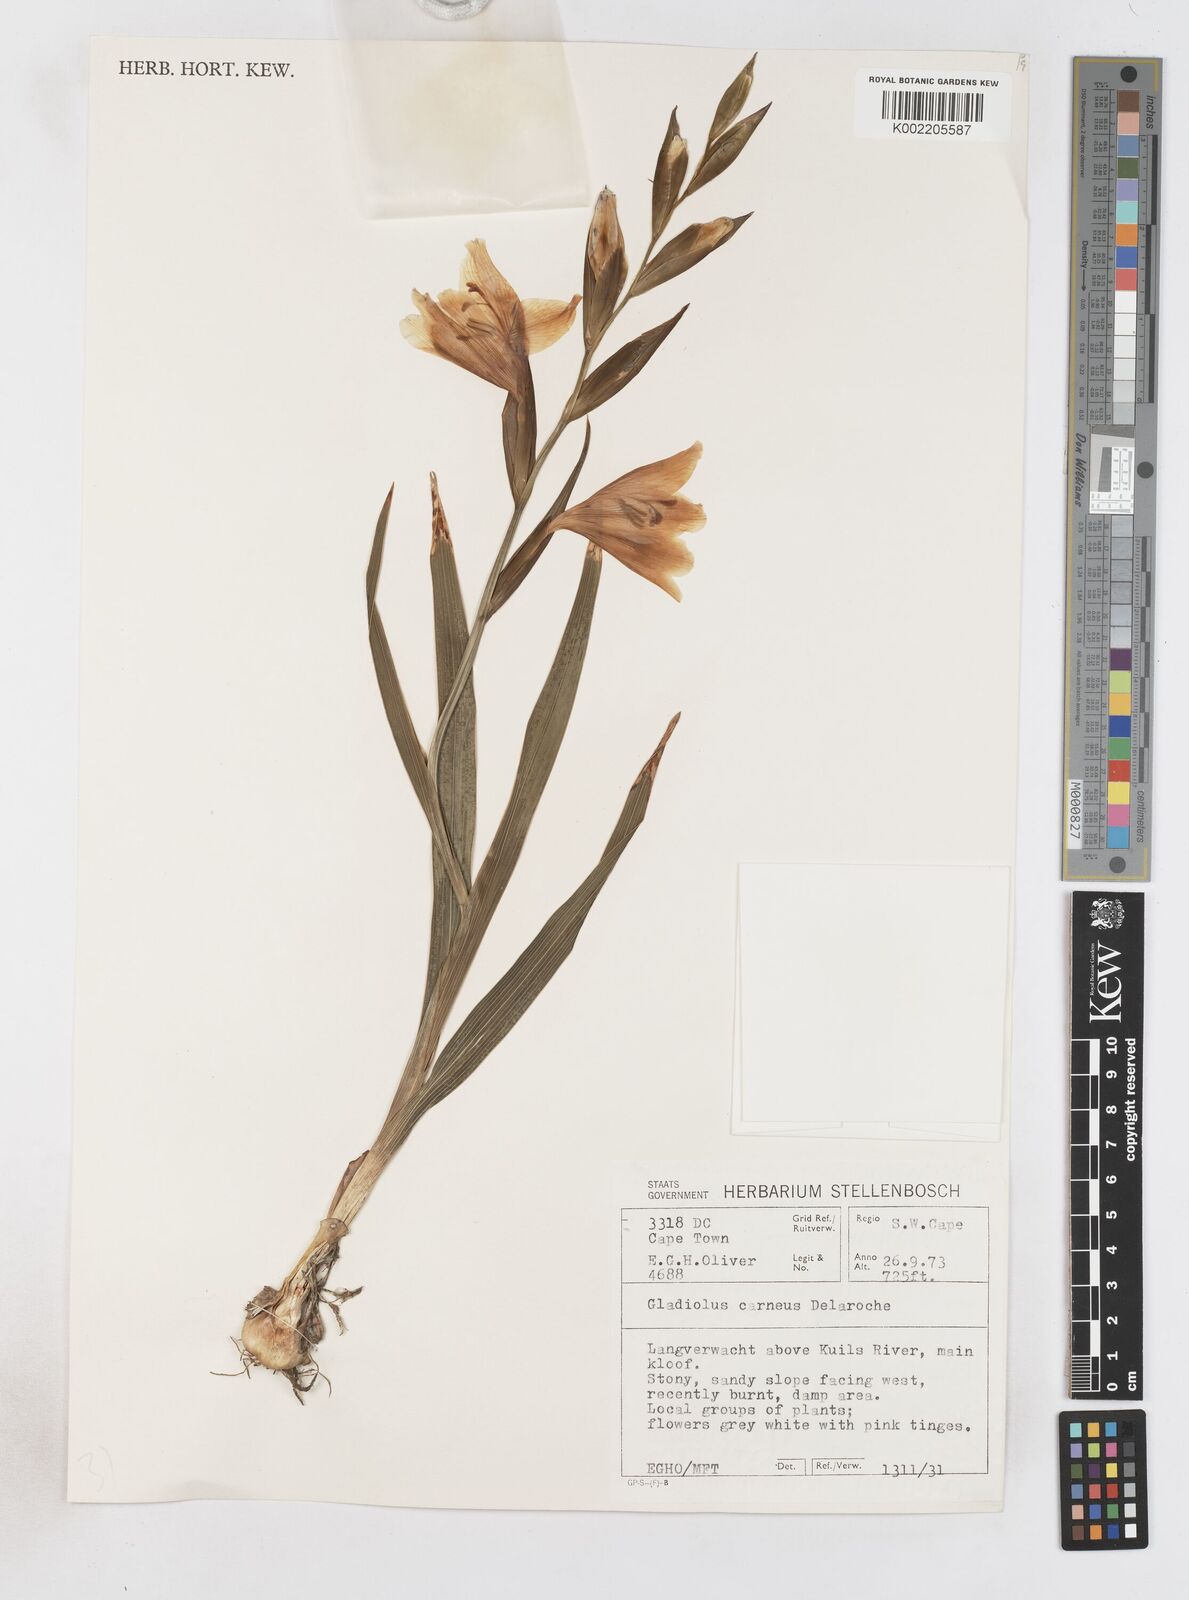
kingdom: Plantae
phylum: Tracheophyta
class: Liliopsida
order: Asparagales
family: Iridaceae
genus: Gladiolus
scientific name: Gladiolus carneus
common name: Painted-lady
